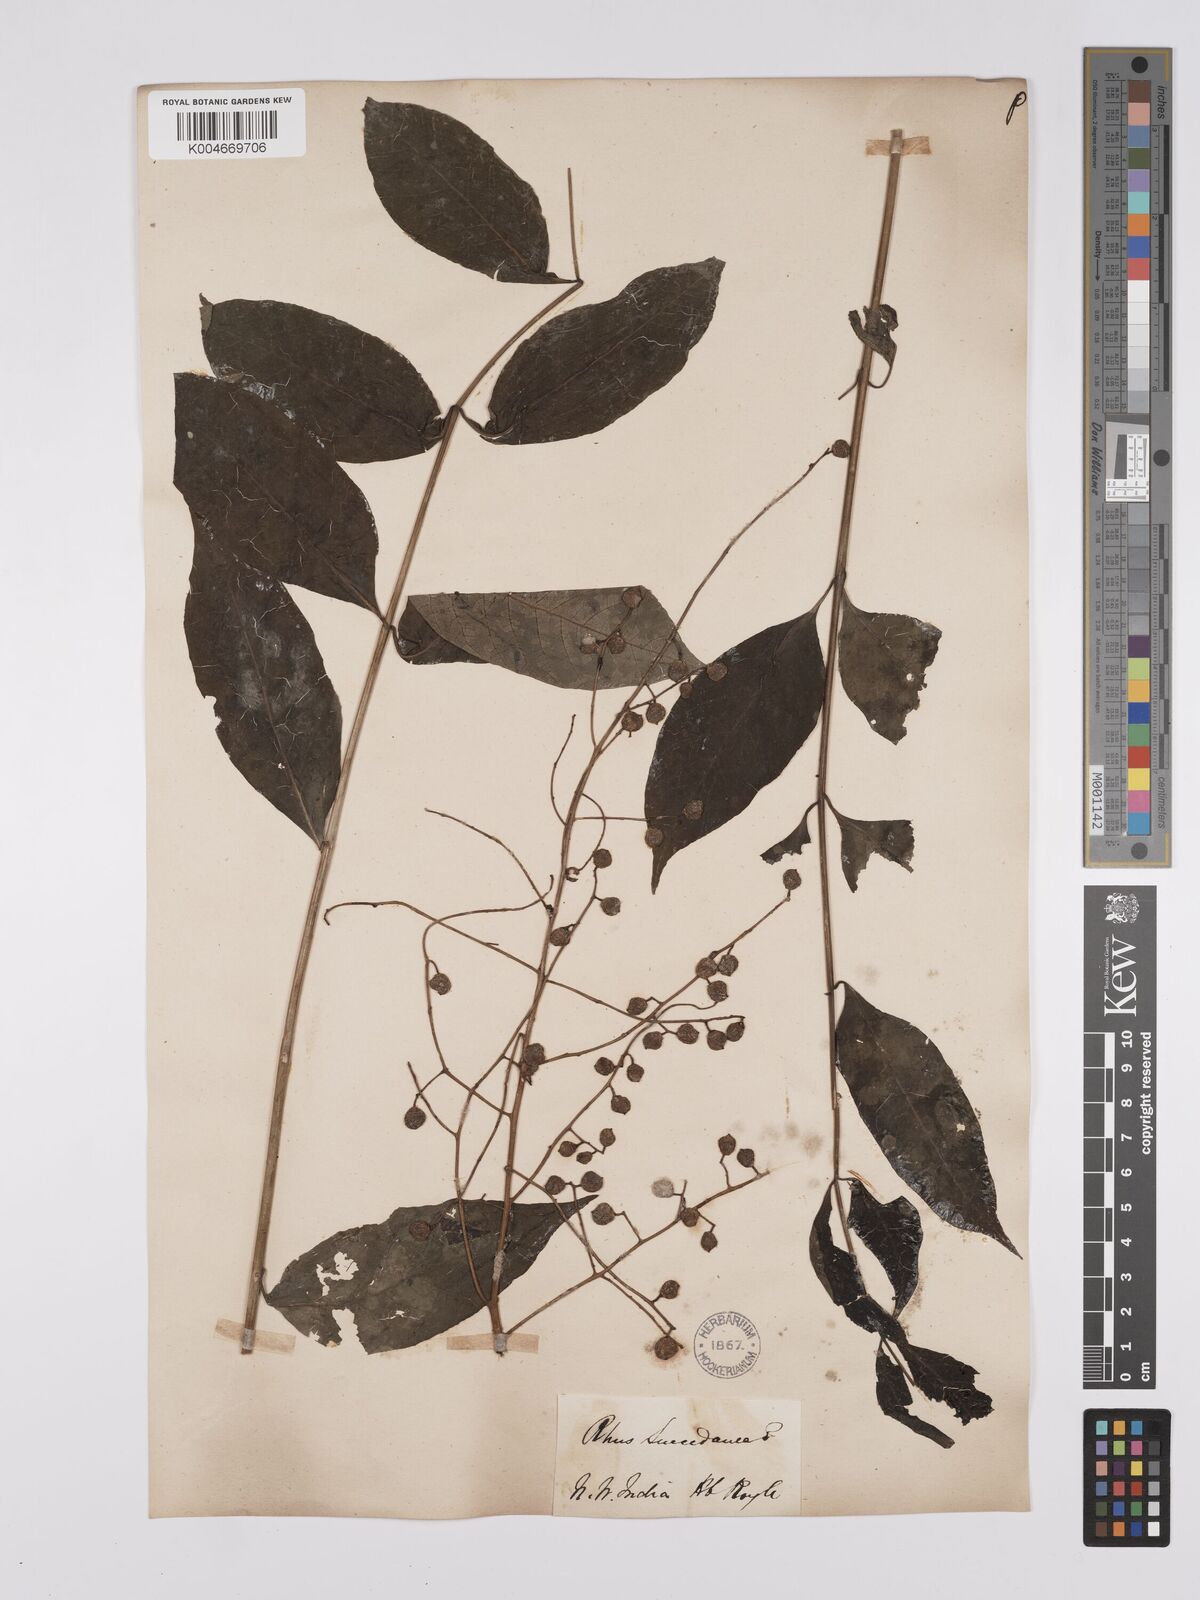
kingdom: Plantae
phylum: Tracheophyta
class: Magnoliopsida
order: Sapindales
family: Anacardiaceae
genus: Toxicodendron
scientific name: Toxicodendron succedaneum
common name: Wax tree
